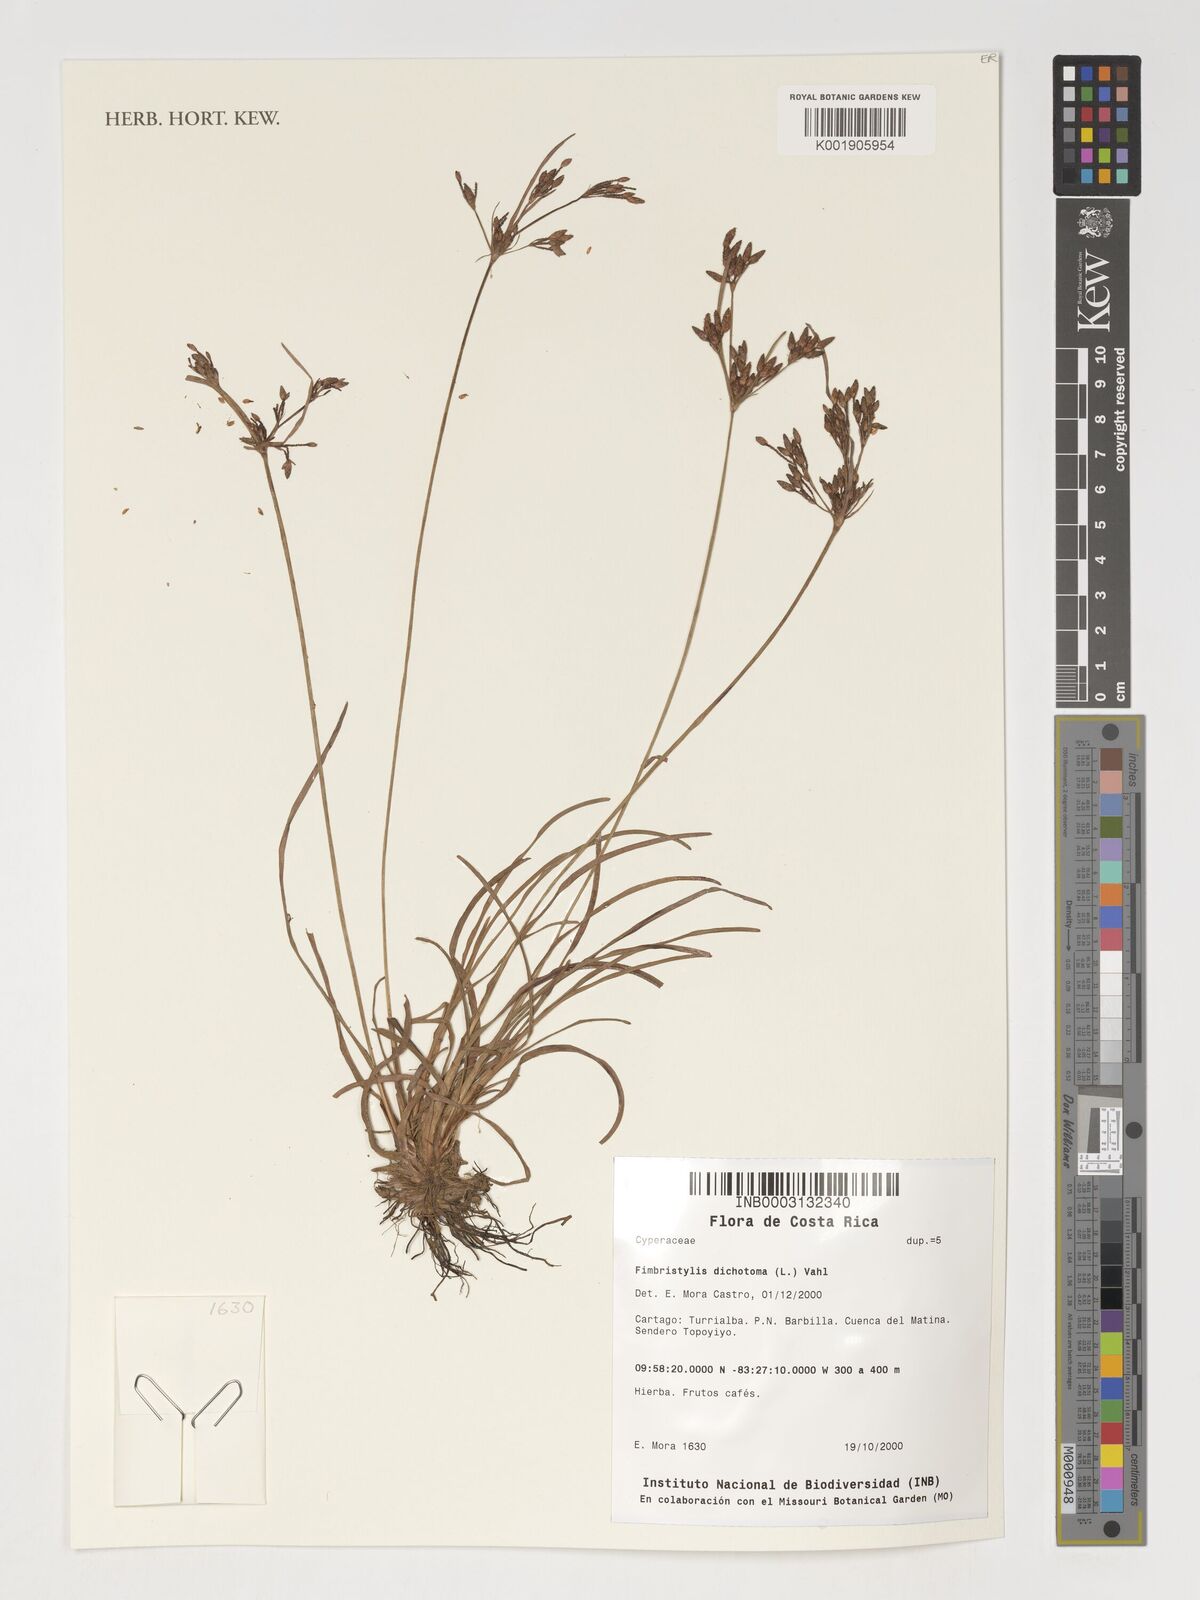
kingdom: Plantae
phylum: Tracheophyta
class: Liliopsida
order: Poales
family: Cyperaceae
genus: Fimbristylis
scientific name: Fimbristylis dichotoma
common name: Forked fimbry
